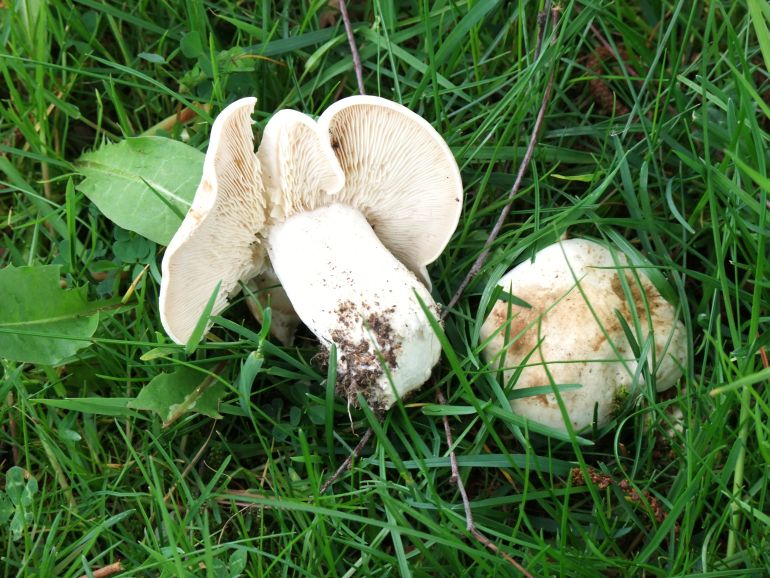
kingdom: Fungi
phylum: Basidiomycota
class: Agaricomycetes
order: Agaricales
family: Lyophyllaceae
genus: Calocybe
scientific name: Calocybe gambosa
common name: vårmusseron
